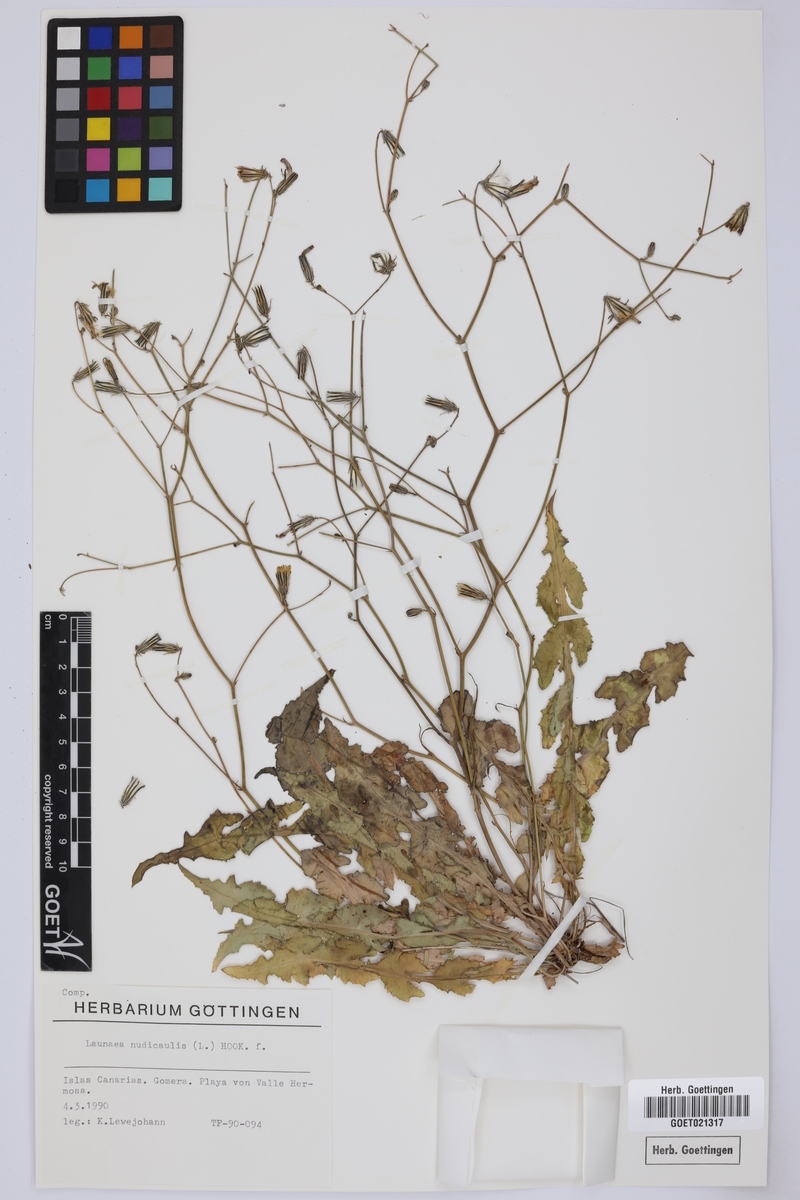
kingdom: Plantae
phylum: Tracheophyta
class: Magnoliopsida
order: Asterales
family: Asteraceae
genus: Launaea
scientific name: Launaea nudicaulis
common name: Naked launaea
